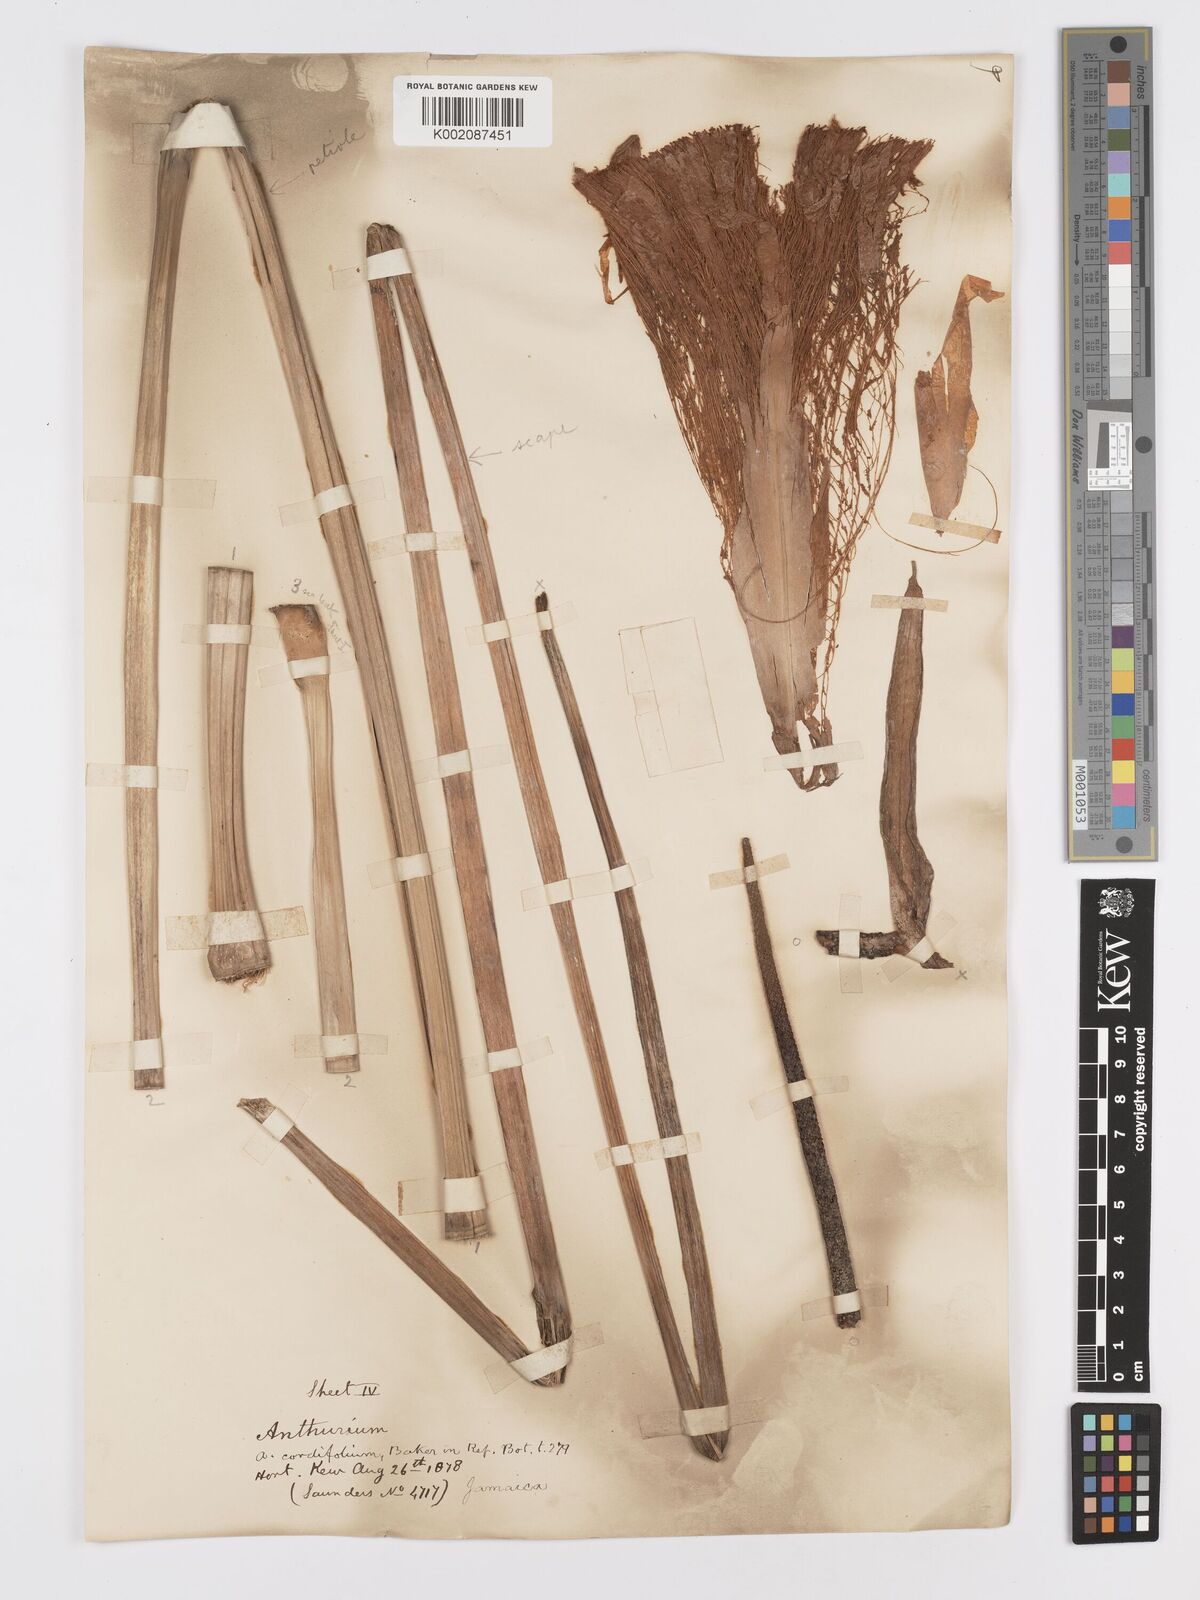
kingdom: Plantae
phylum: Tracheophyta
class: Liliopsida
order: Alismatales
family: Araceae
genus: Anthurium
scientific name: Anthurium
